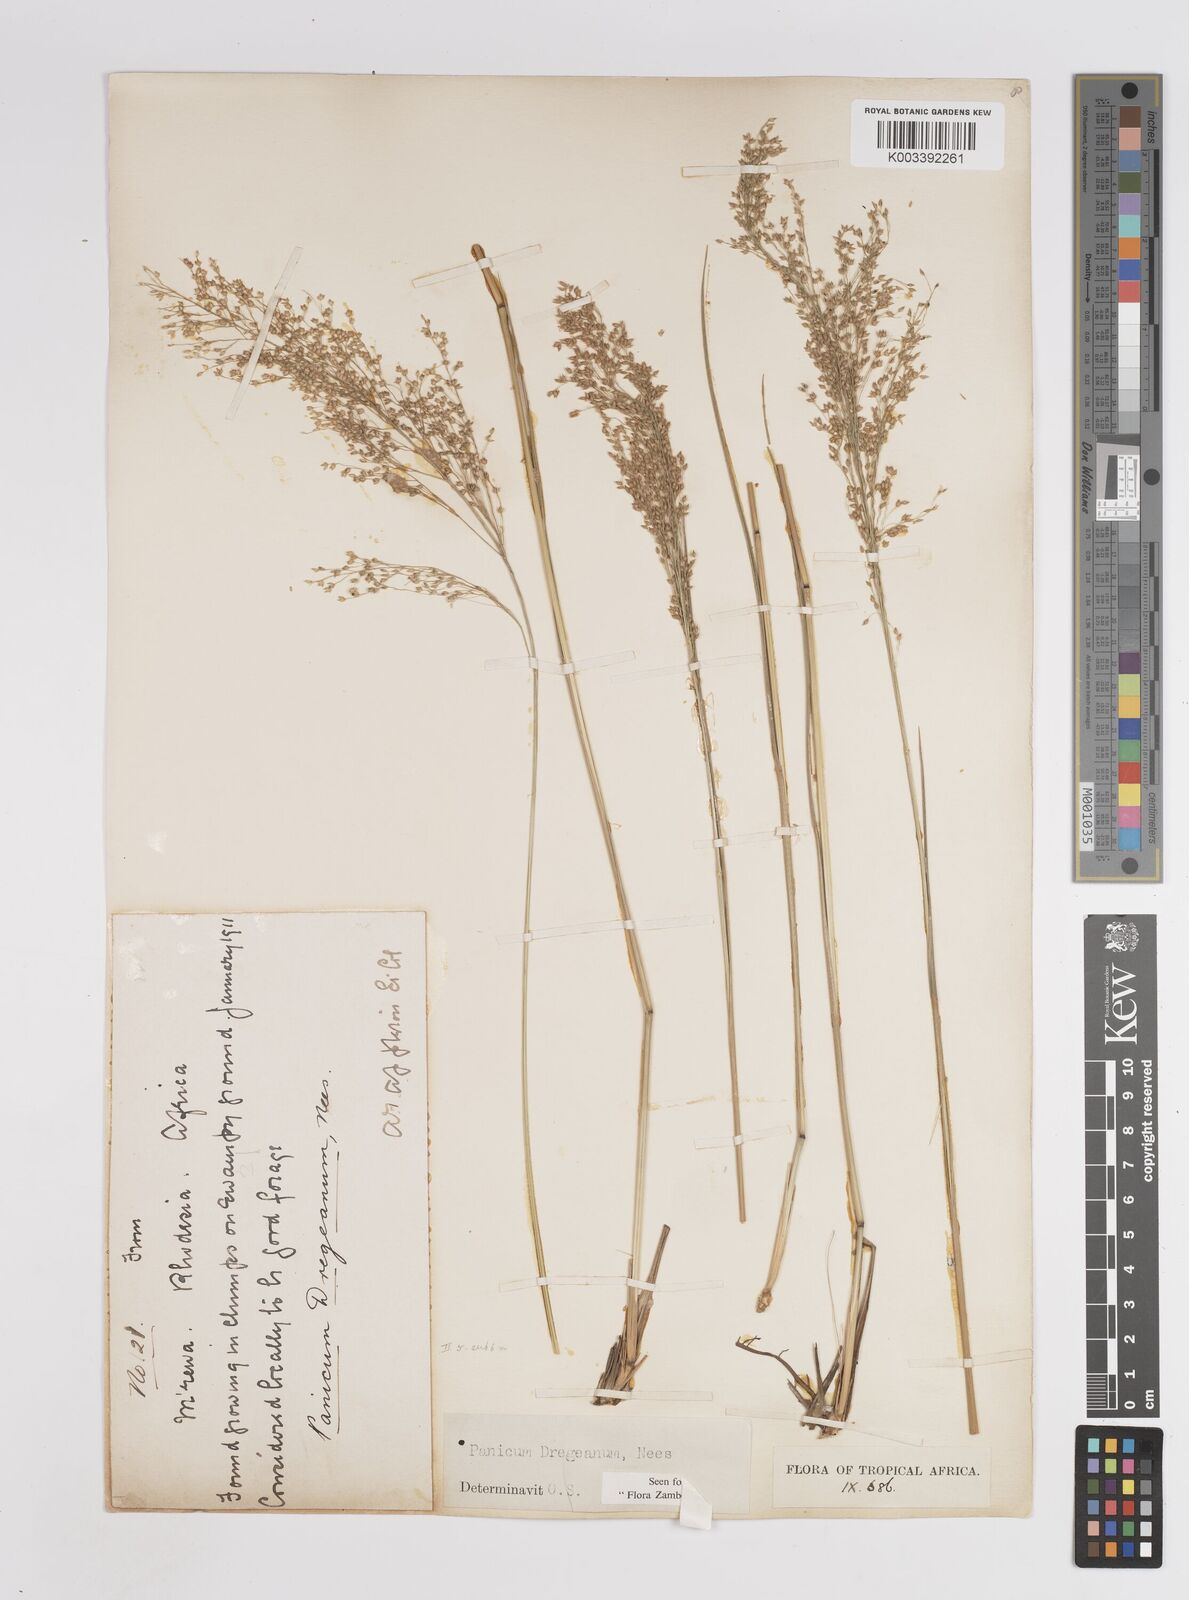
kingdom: Plantae
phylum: Tracheophyta
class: Liliopsida
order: Poales
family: Poaceae
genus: Panicum
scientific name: Panicum dregeanum
